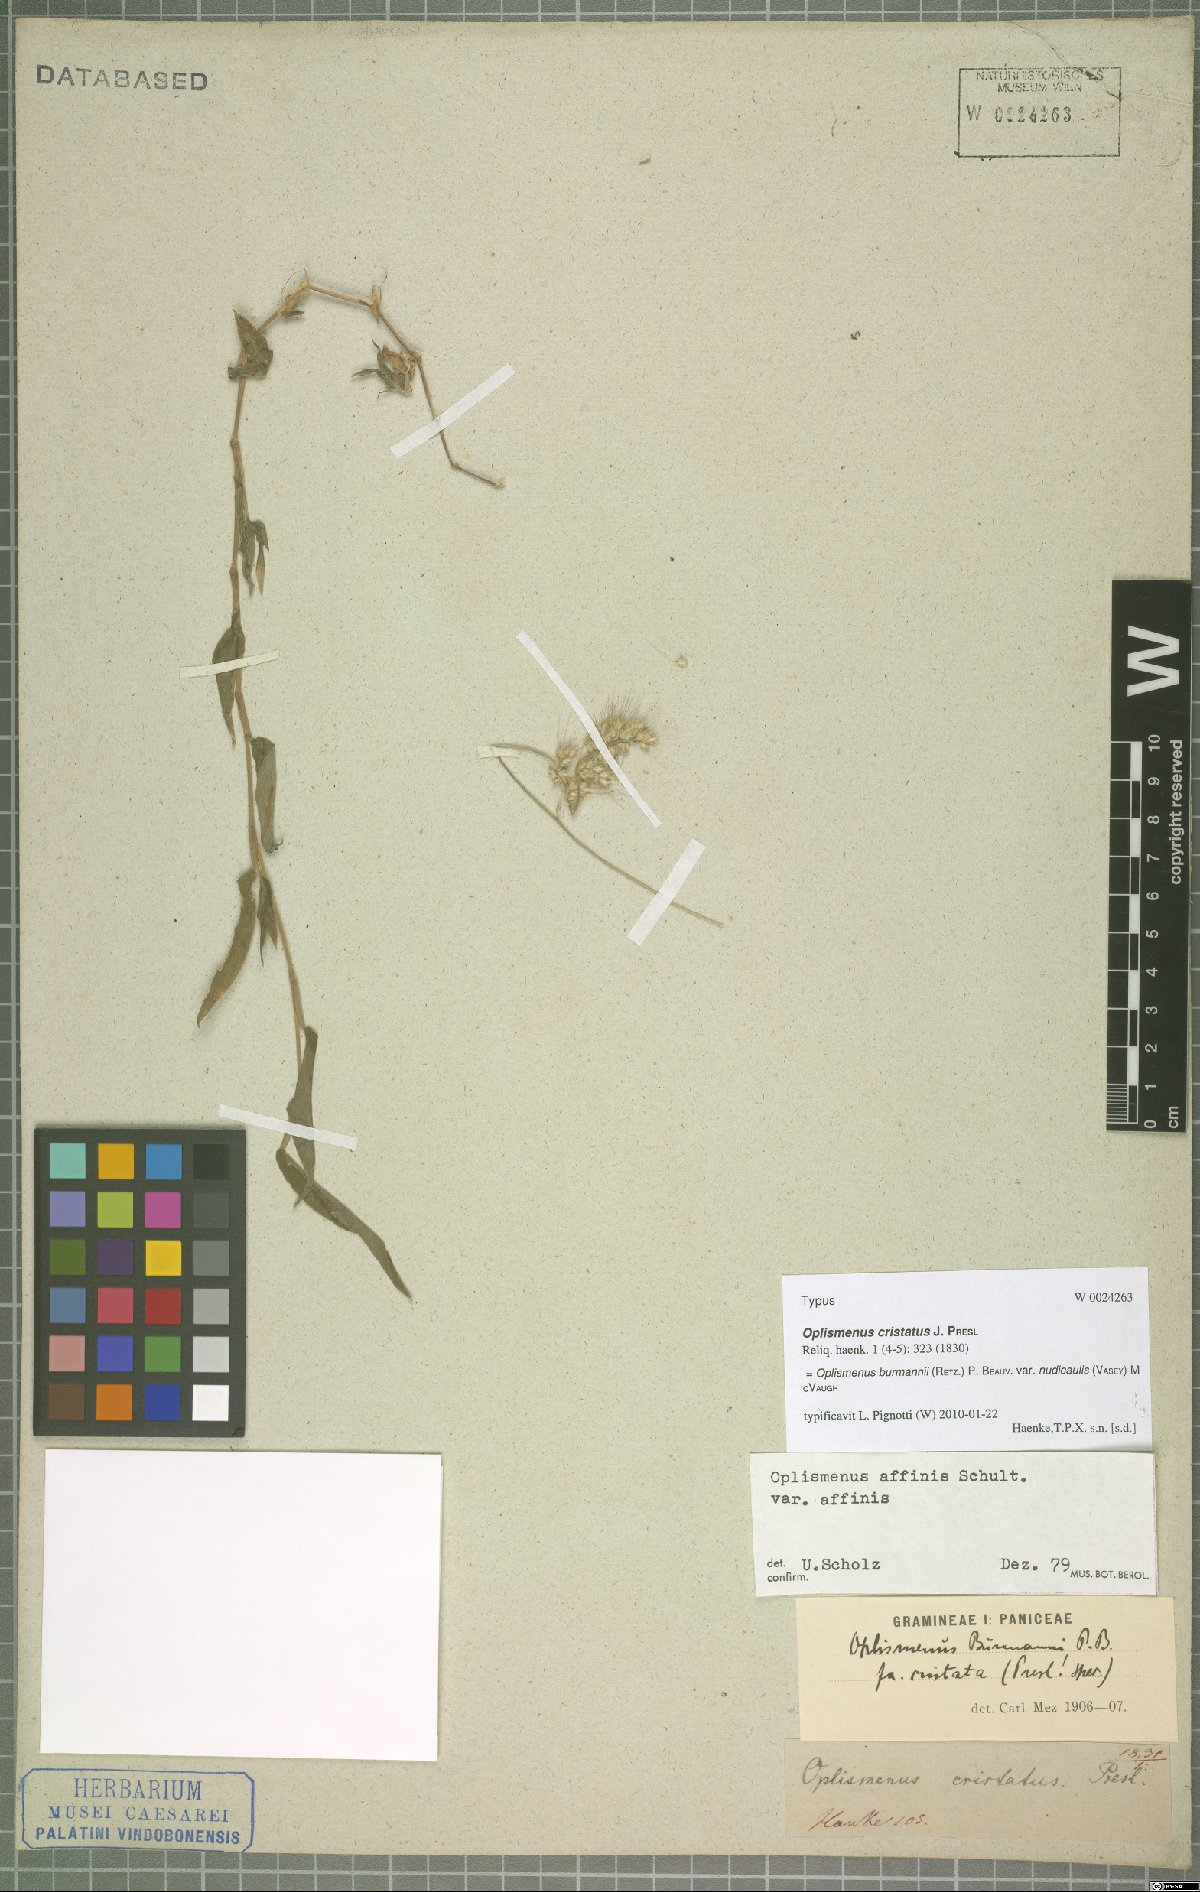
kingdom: Plantae
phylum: Tracheophyta
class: Liliopsida
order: Poales
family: Poaceae
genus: Oplismenus
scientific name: Oplismenus burmanni
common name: Burmann's basketgrass
